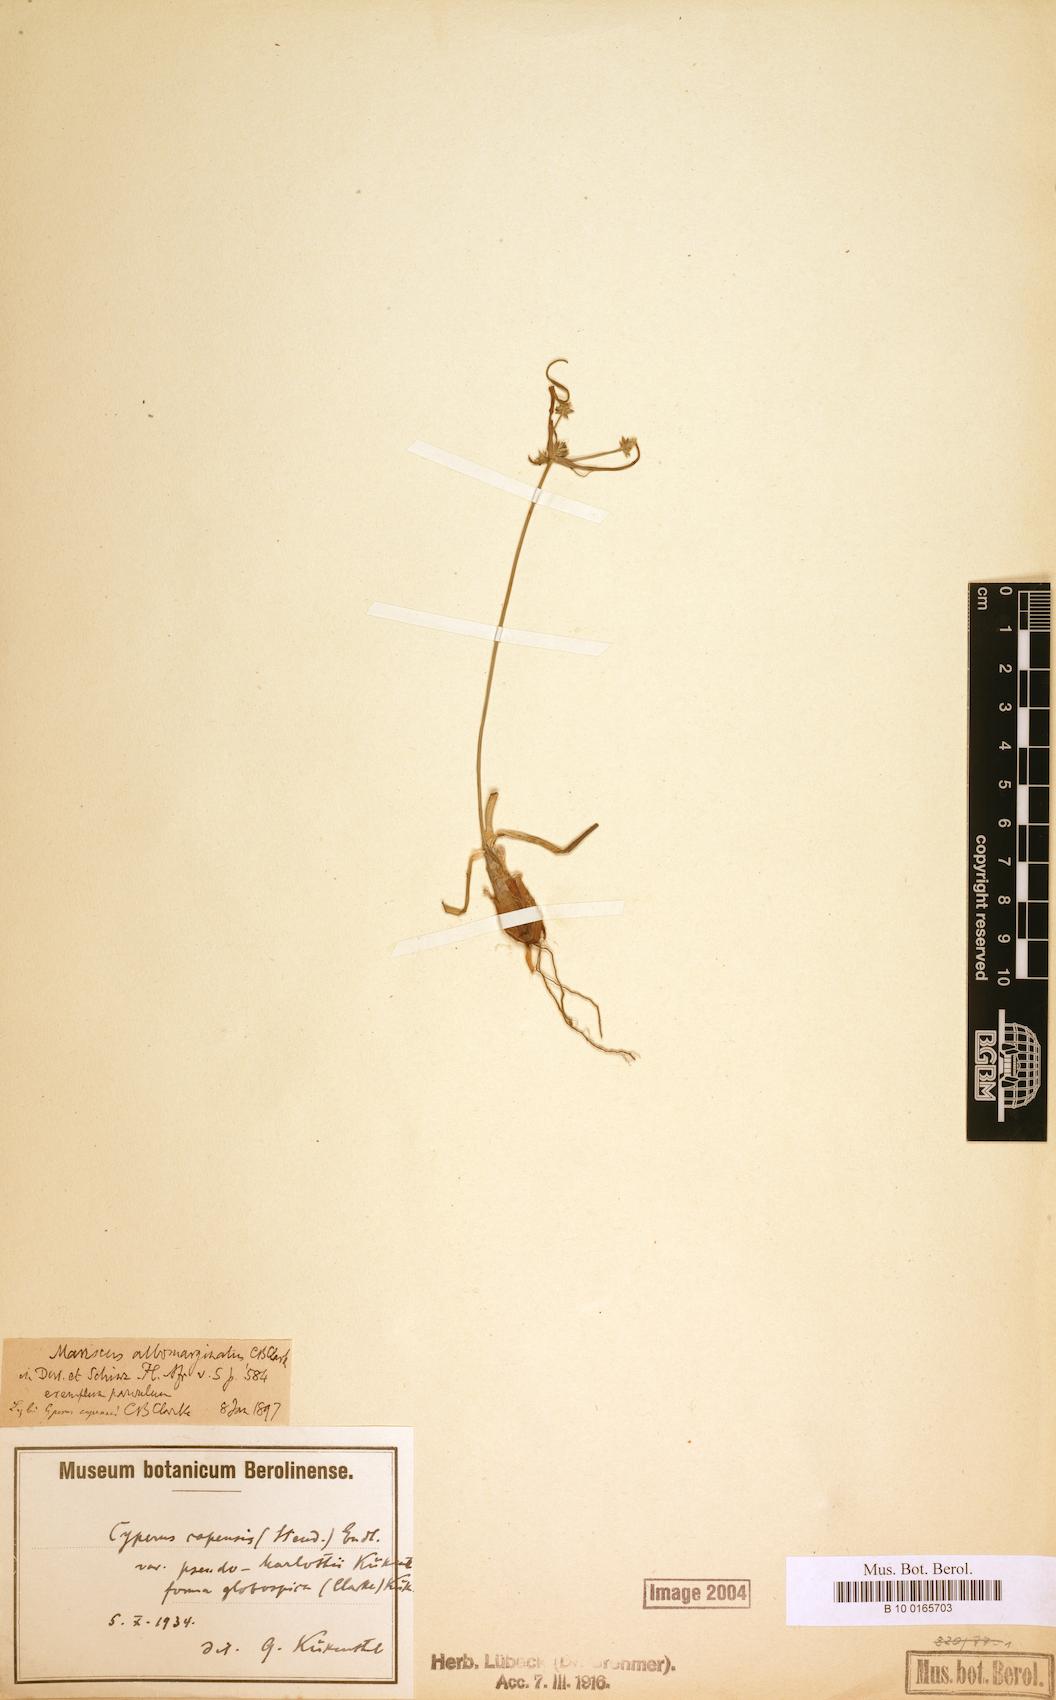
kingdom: Plantae
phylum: Tracheophyta
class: Liliopsida
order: Poales
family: Cyperaceae
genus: Cyperus
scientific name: Cyperus uitenhagensis
